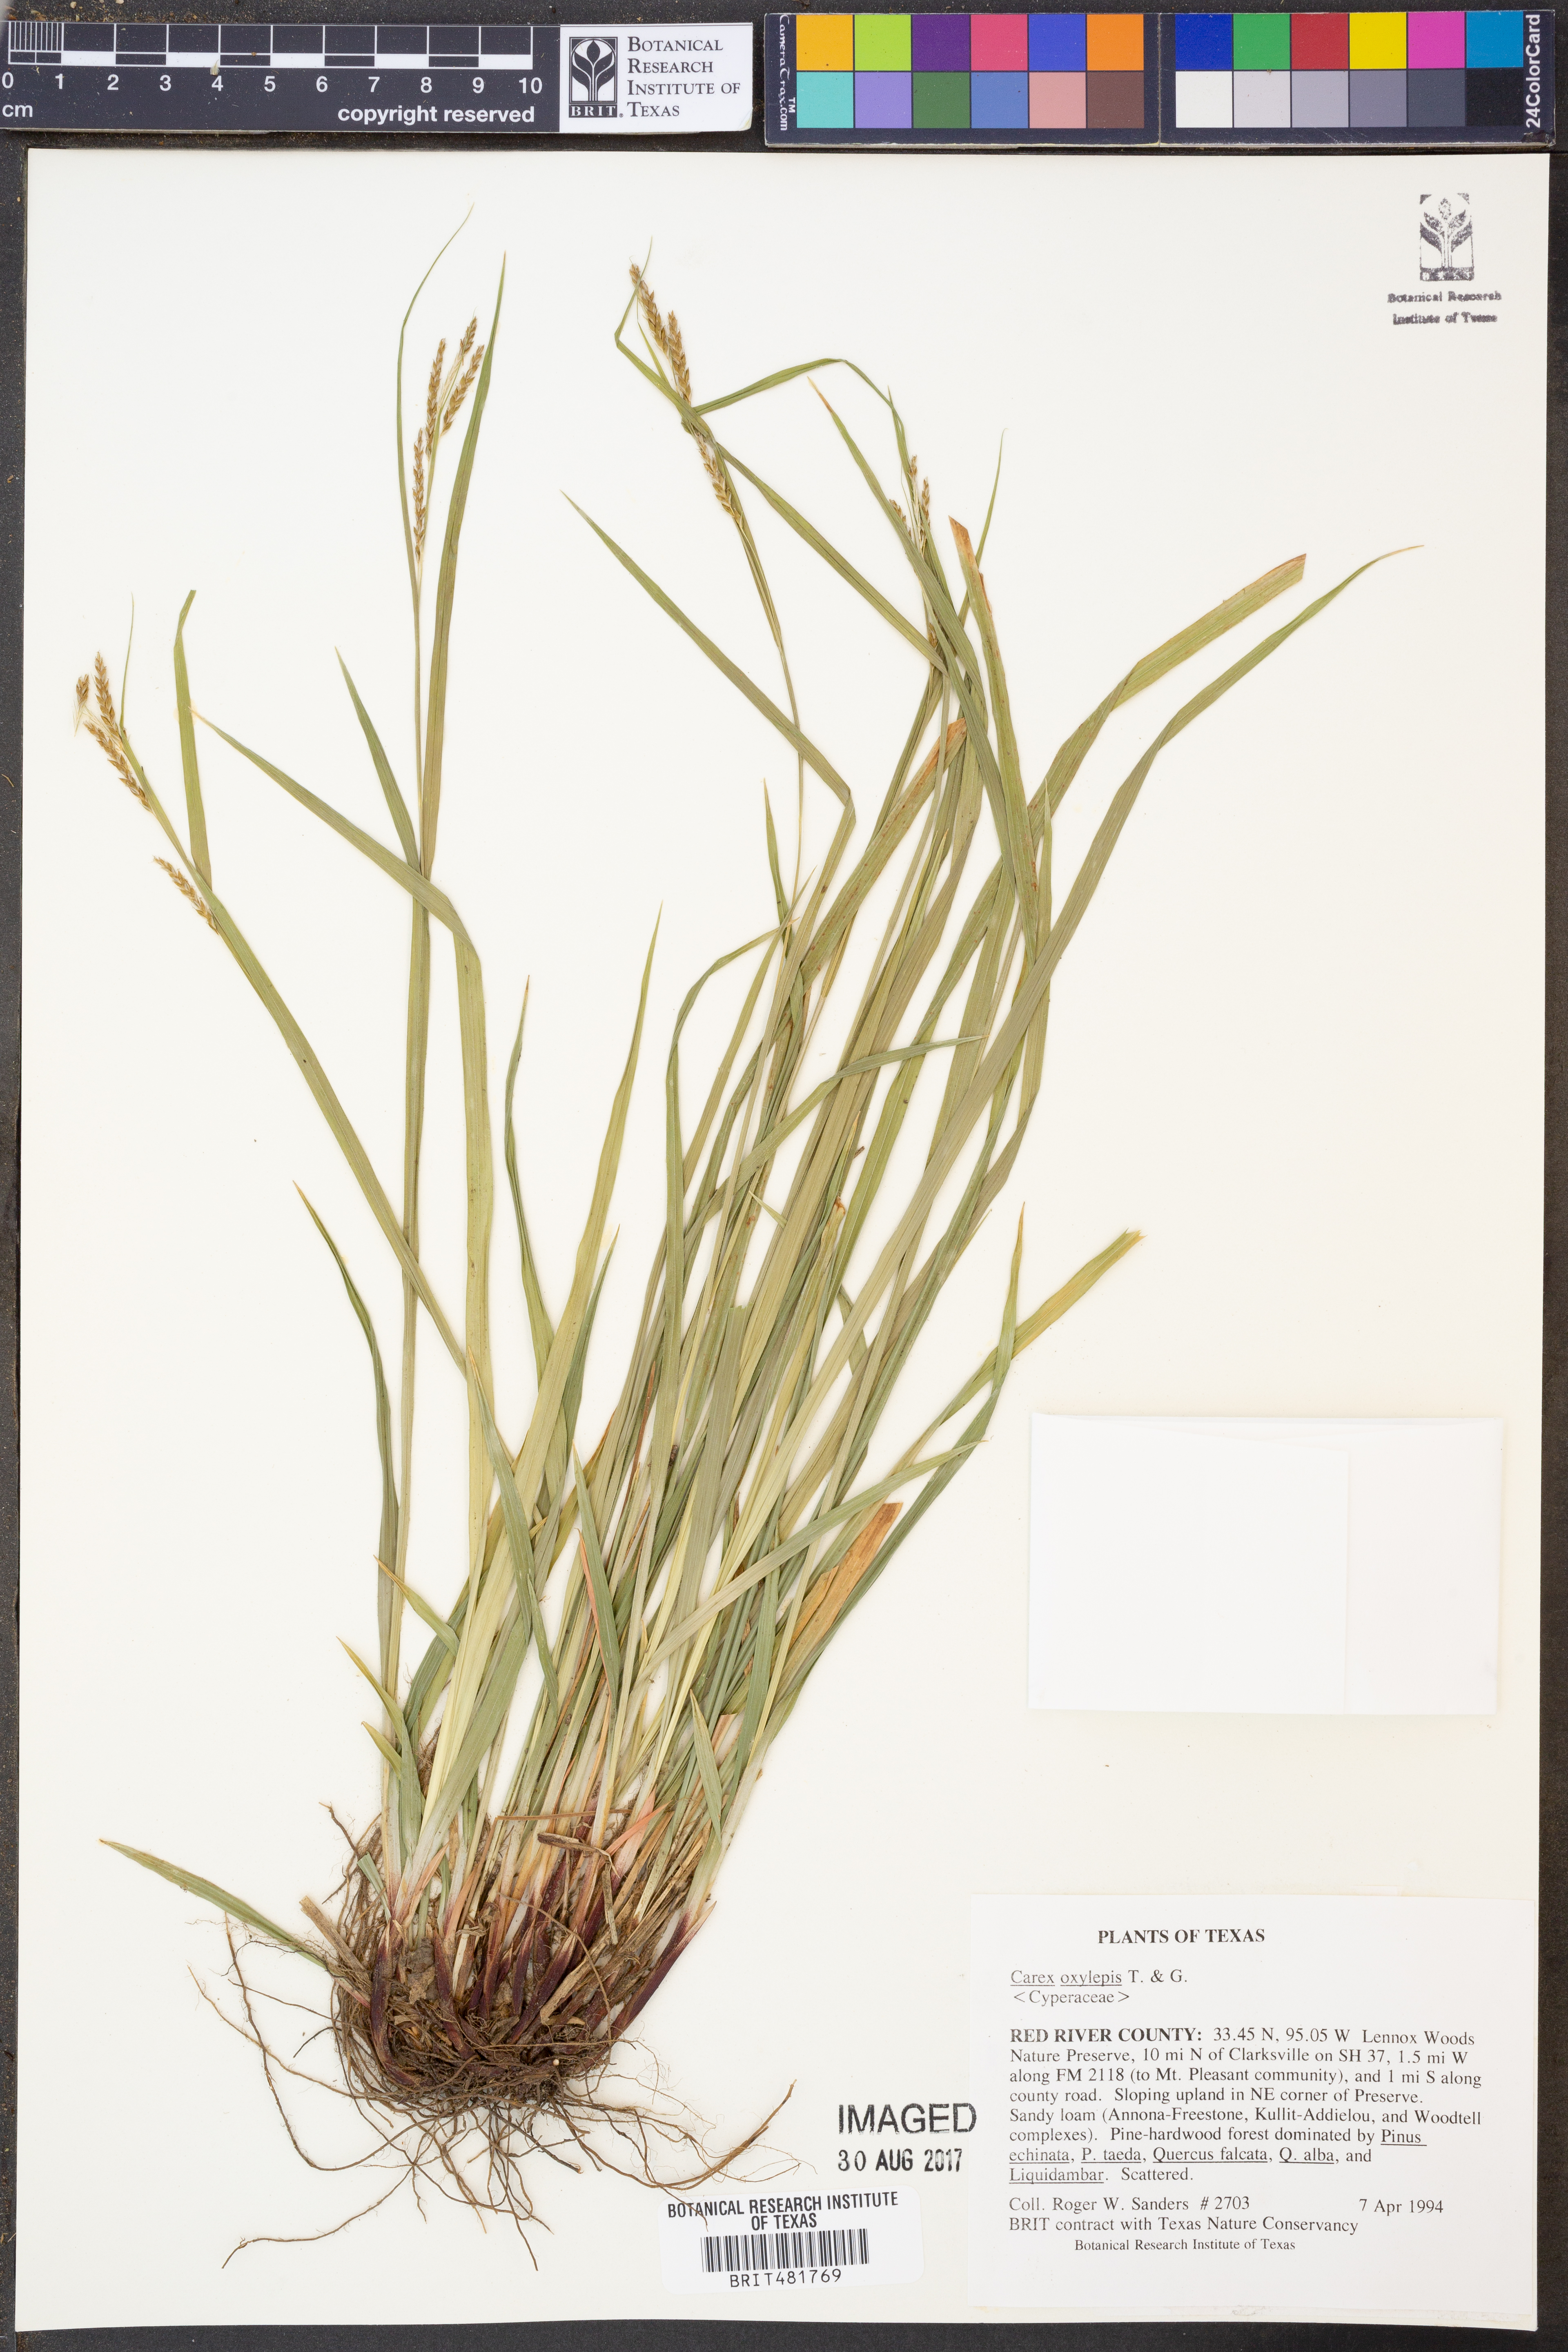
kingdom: Plantae
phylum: Tracheophyta
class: Liliopsida
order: Poales
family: Cyperaceae
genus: Carex
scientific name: Carex oxylepis
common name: Sharpscale sedge
